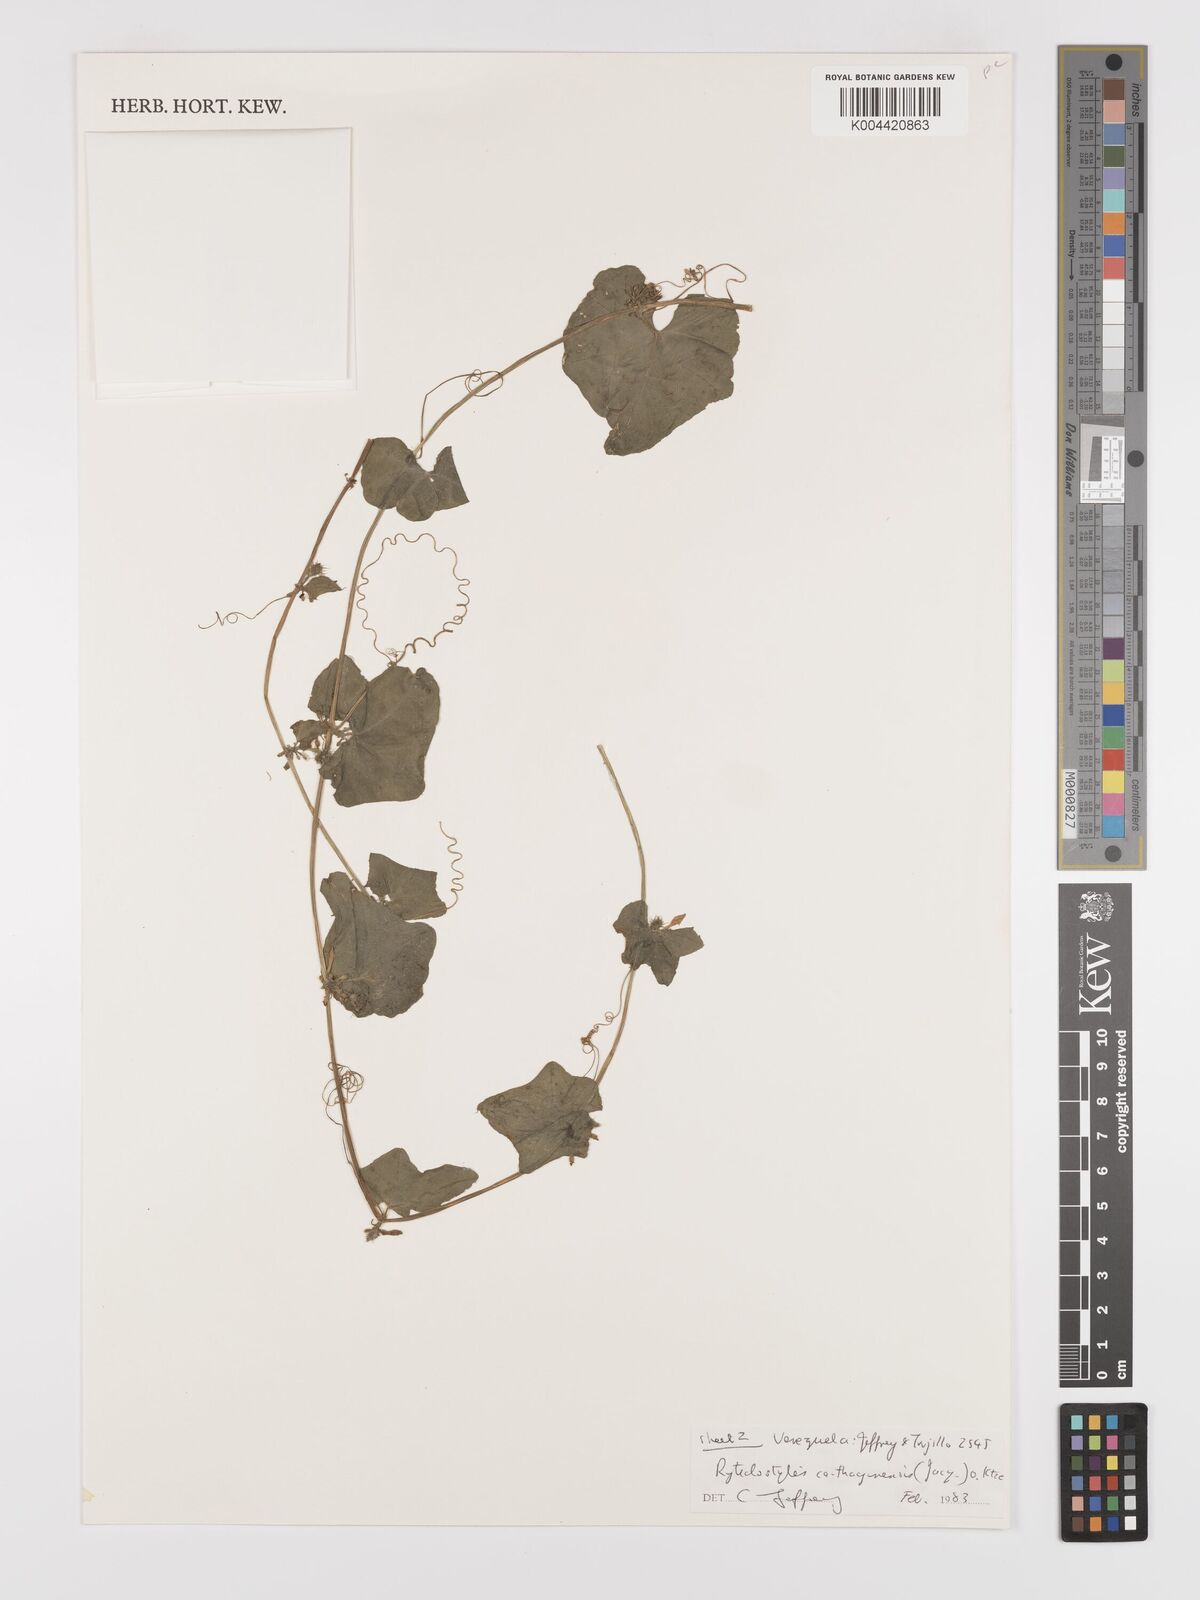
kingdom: Plantae
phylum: Tracheophyta
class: Magnoliopsida
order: Cucurbitales
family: Cucurbitaceae
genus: Cyclanthera
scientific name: Cyclanthera carthagenensis
